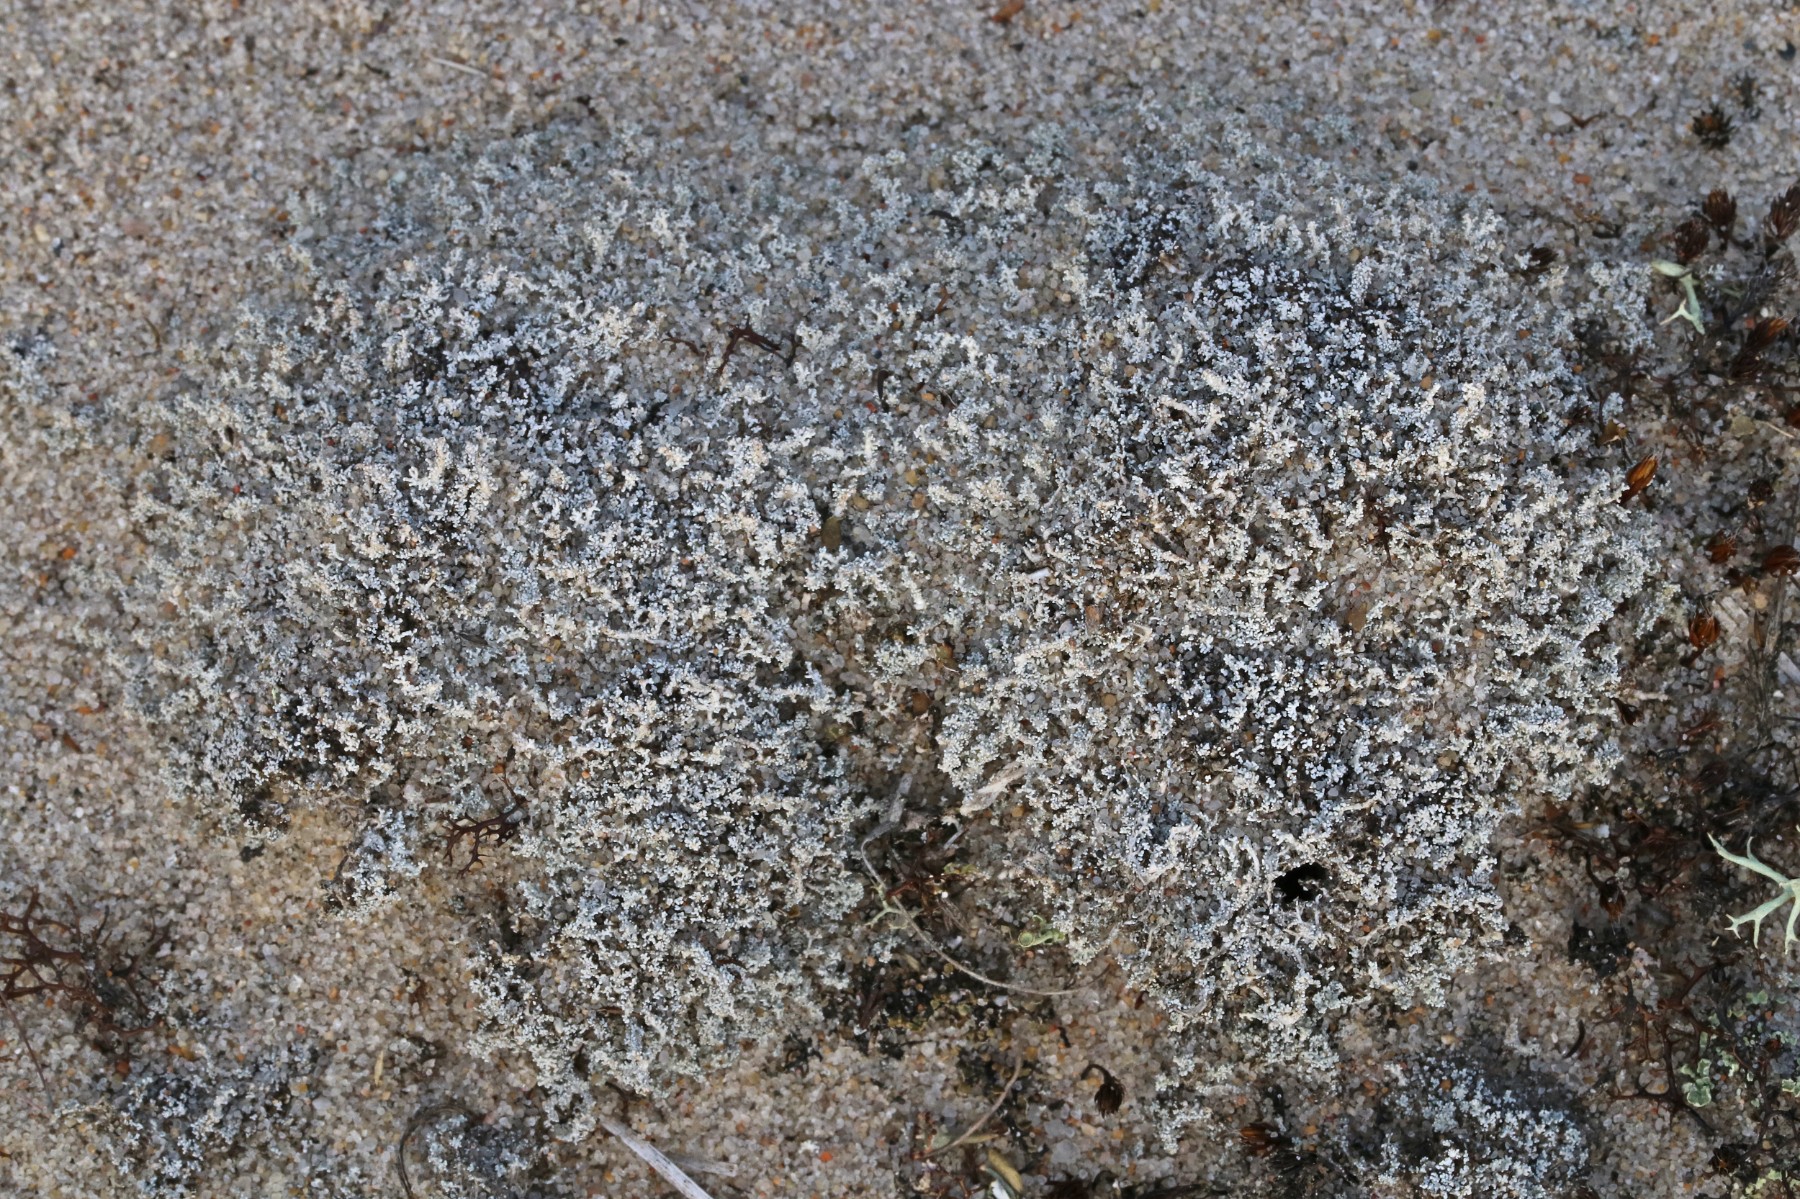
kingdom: Fungi
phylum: Ascomycota
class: Lecanoromycetes
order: Lecanorales
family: Stereocaulaceae
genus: Stereocaulon
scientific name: Stereocaulon condensatum
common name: lav korallav
